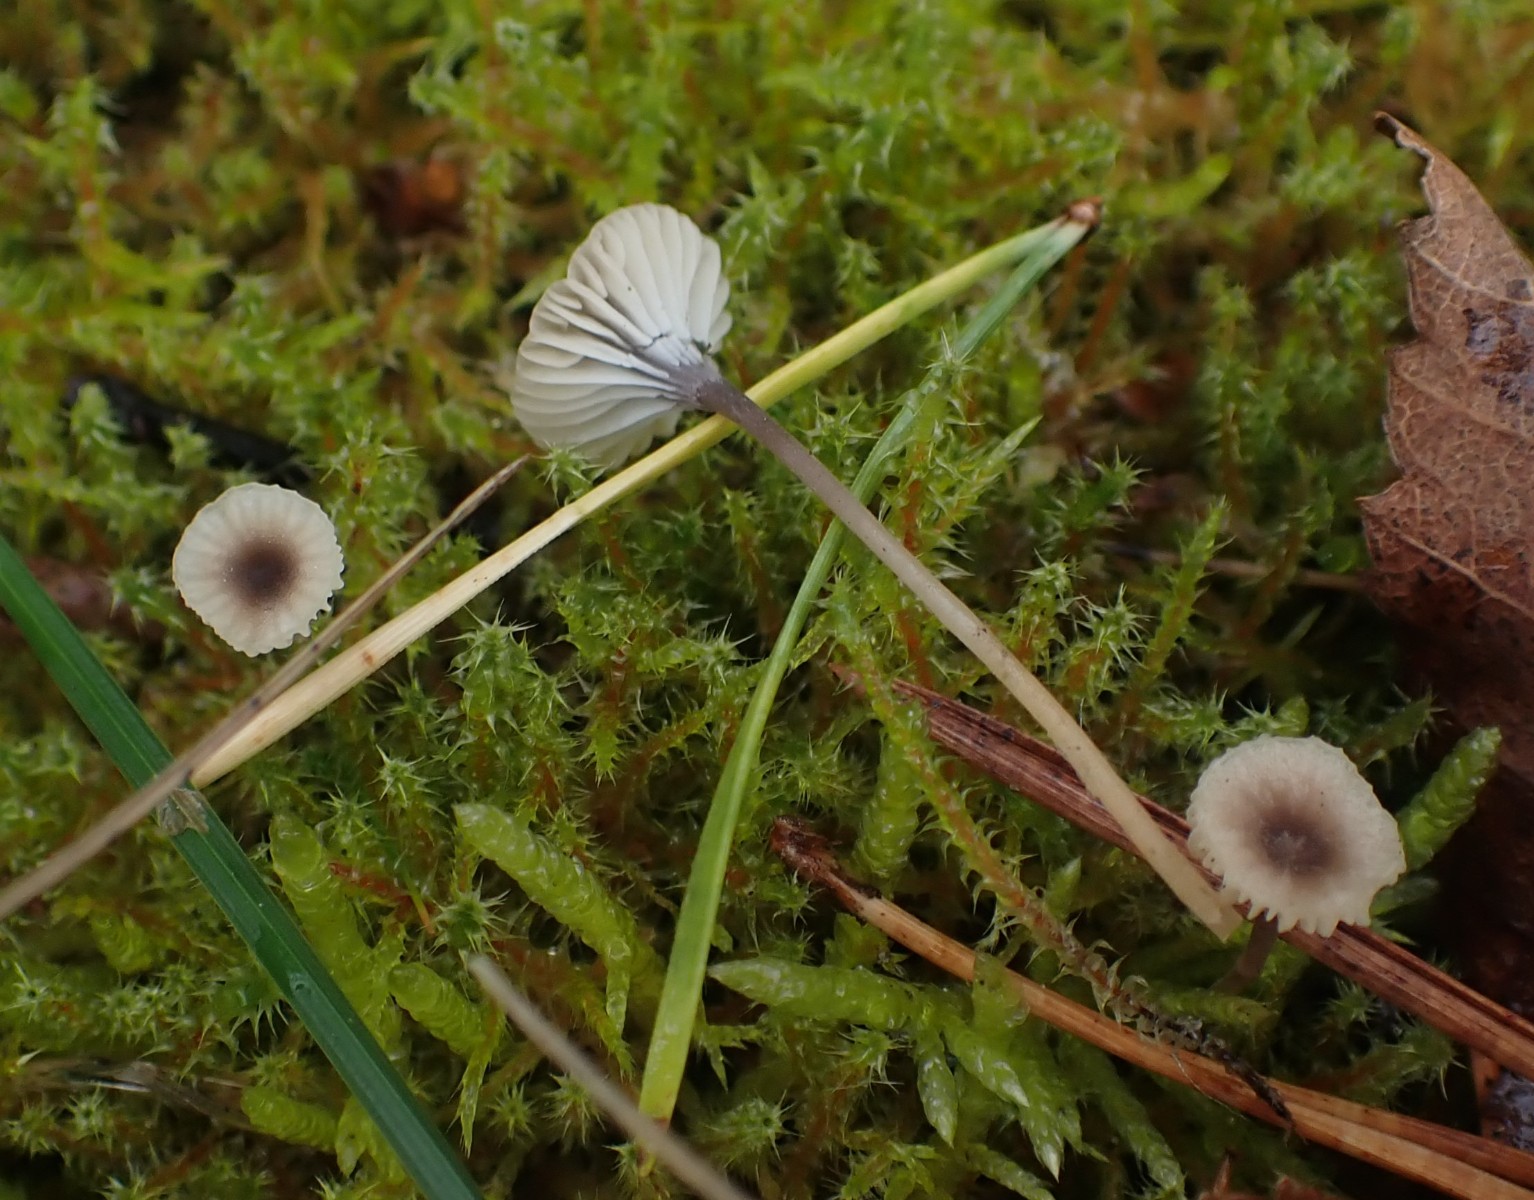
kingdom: Fungi
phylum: Basidiomycota
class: Agaricomycetes
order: Hymenochaetales
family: Rickenellaceae
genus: Rickenella
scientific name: Rickenella swartzii
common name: finstokket mosnavlehat
